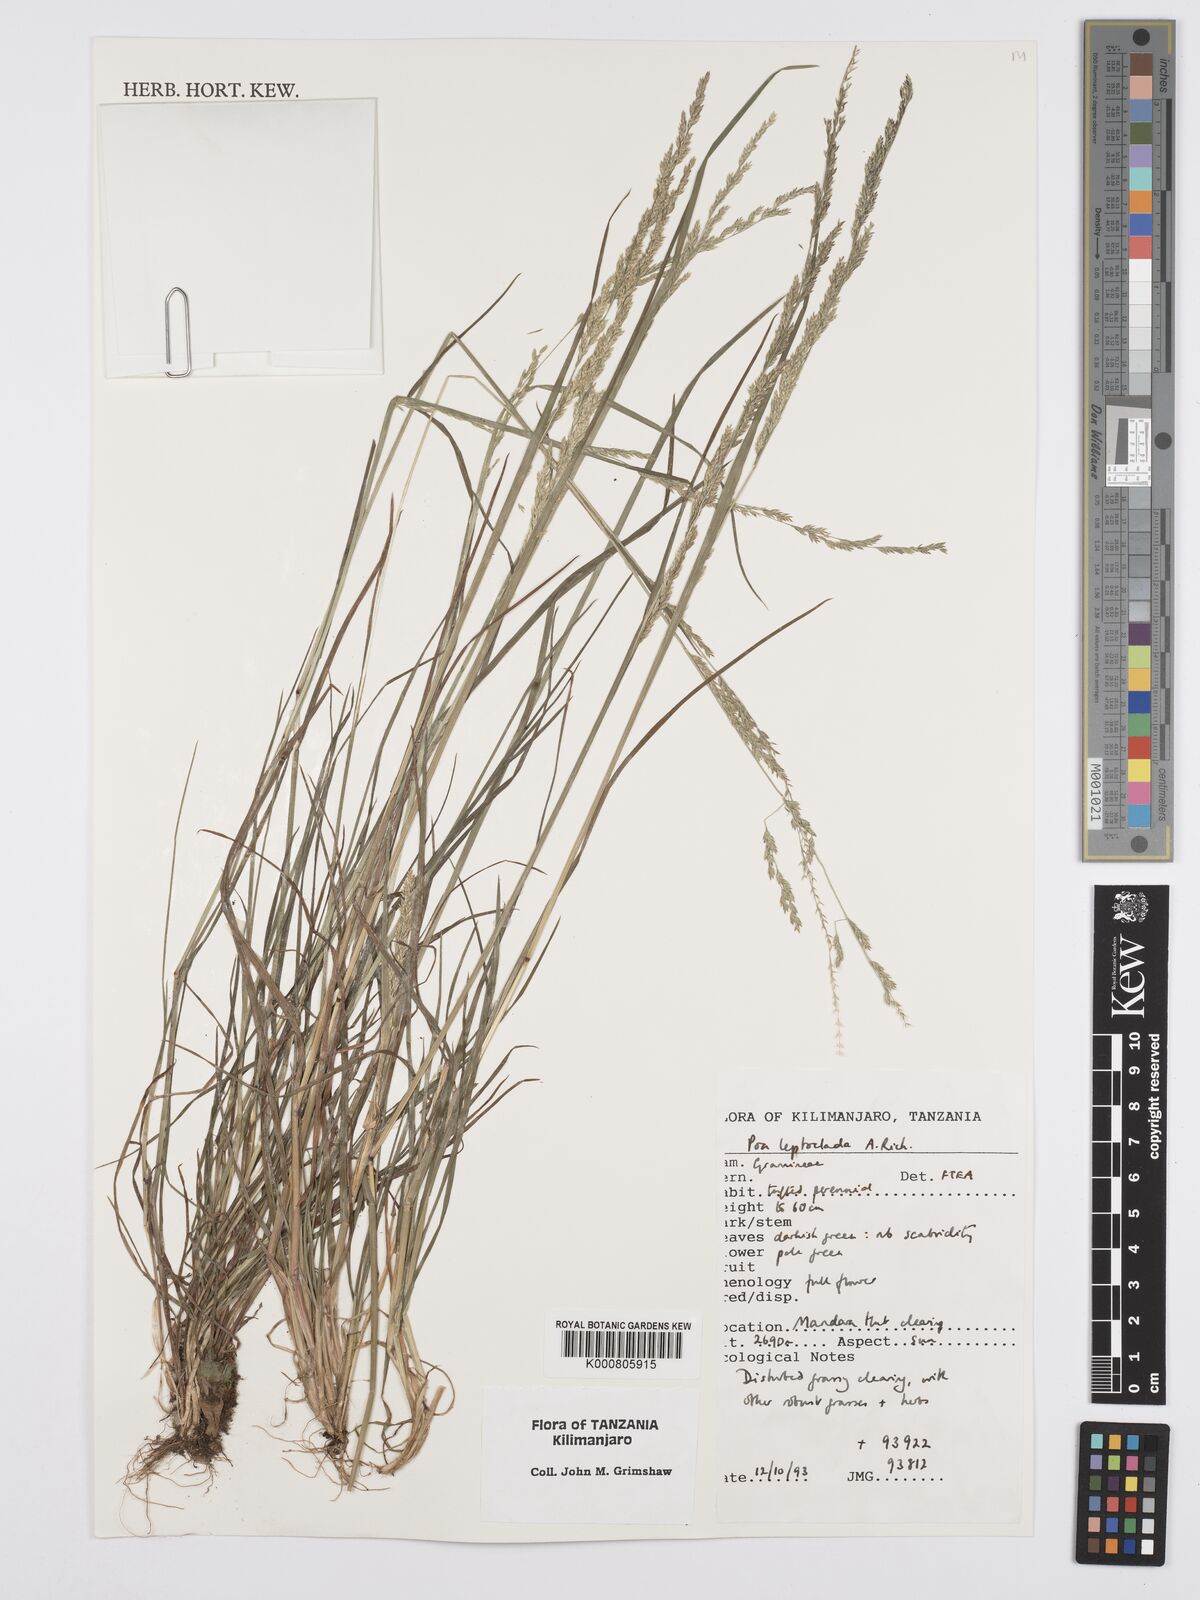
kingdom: Plantae
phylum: Tracheophyta
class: Liliopsida
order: Poales
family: Poaceae
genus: Poa
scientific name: Poa leptoclada
